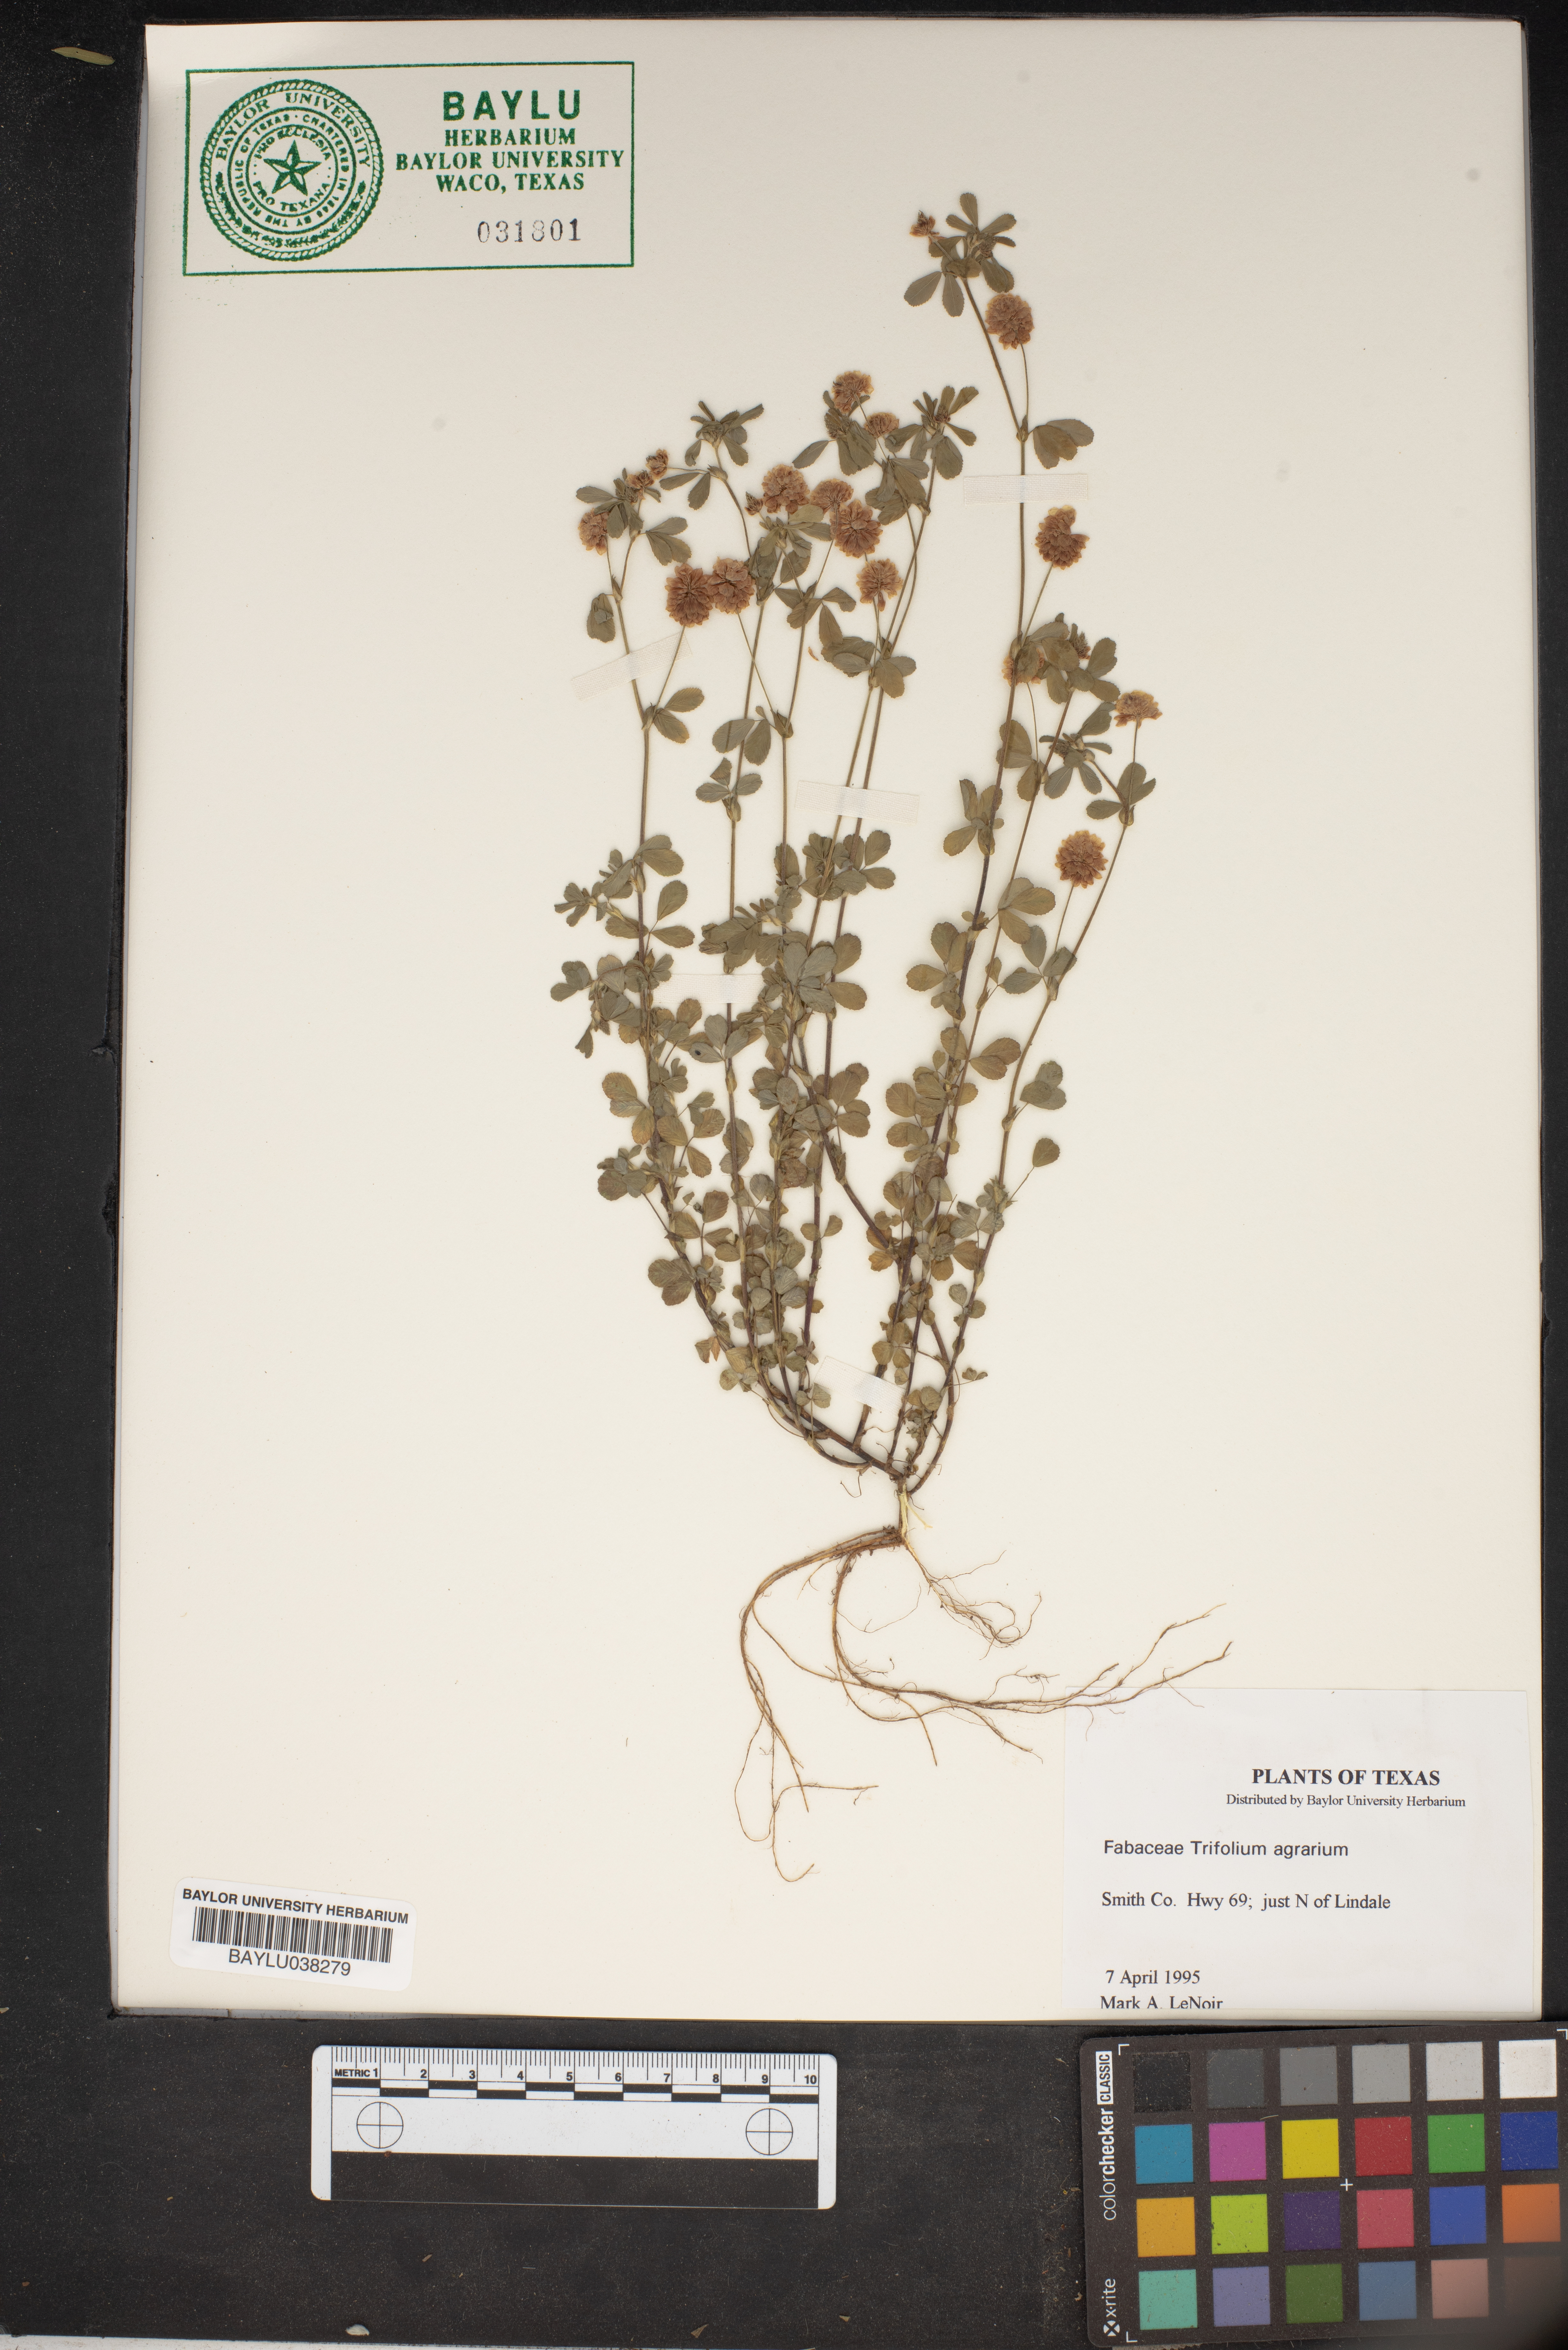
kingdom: Plantae
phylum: Tracheophyta
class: Magnoliopsida
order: Fabales
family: Fabaceae
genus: Trifolium
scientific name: Trifolium agrarium
